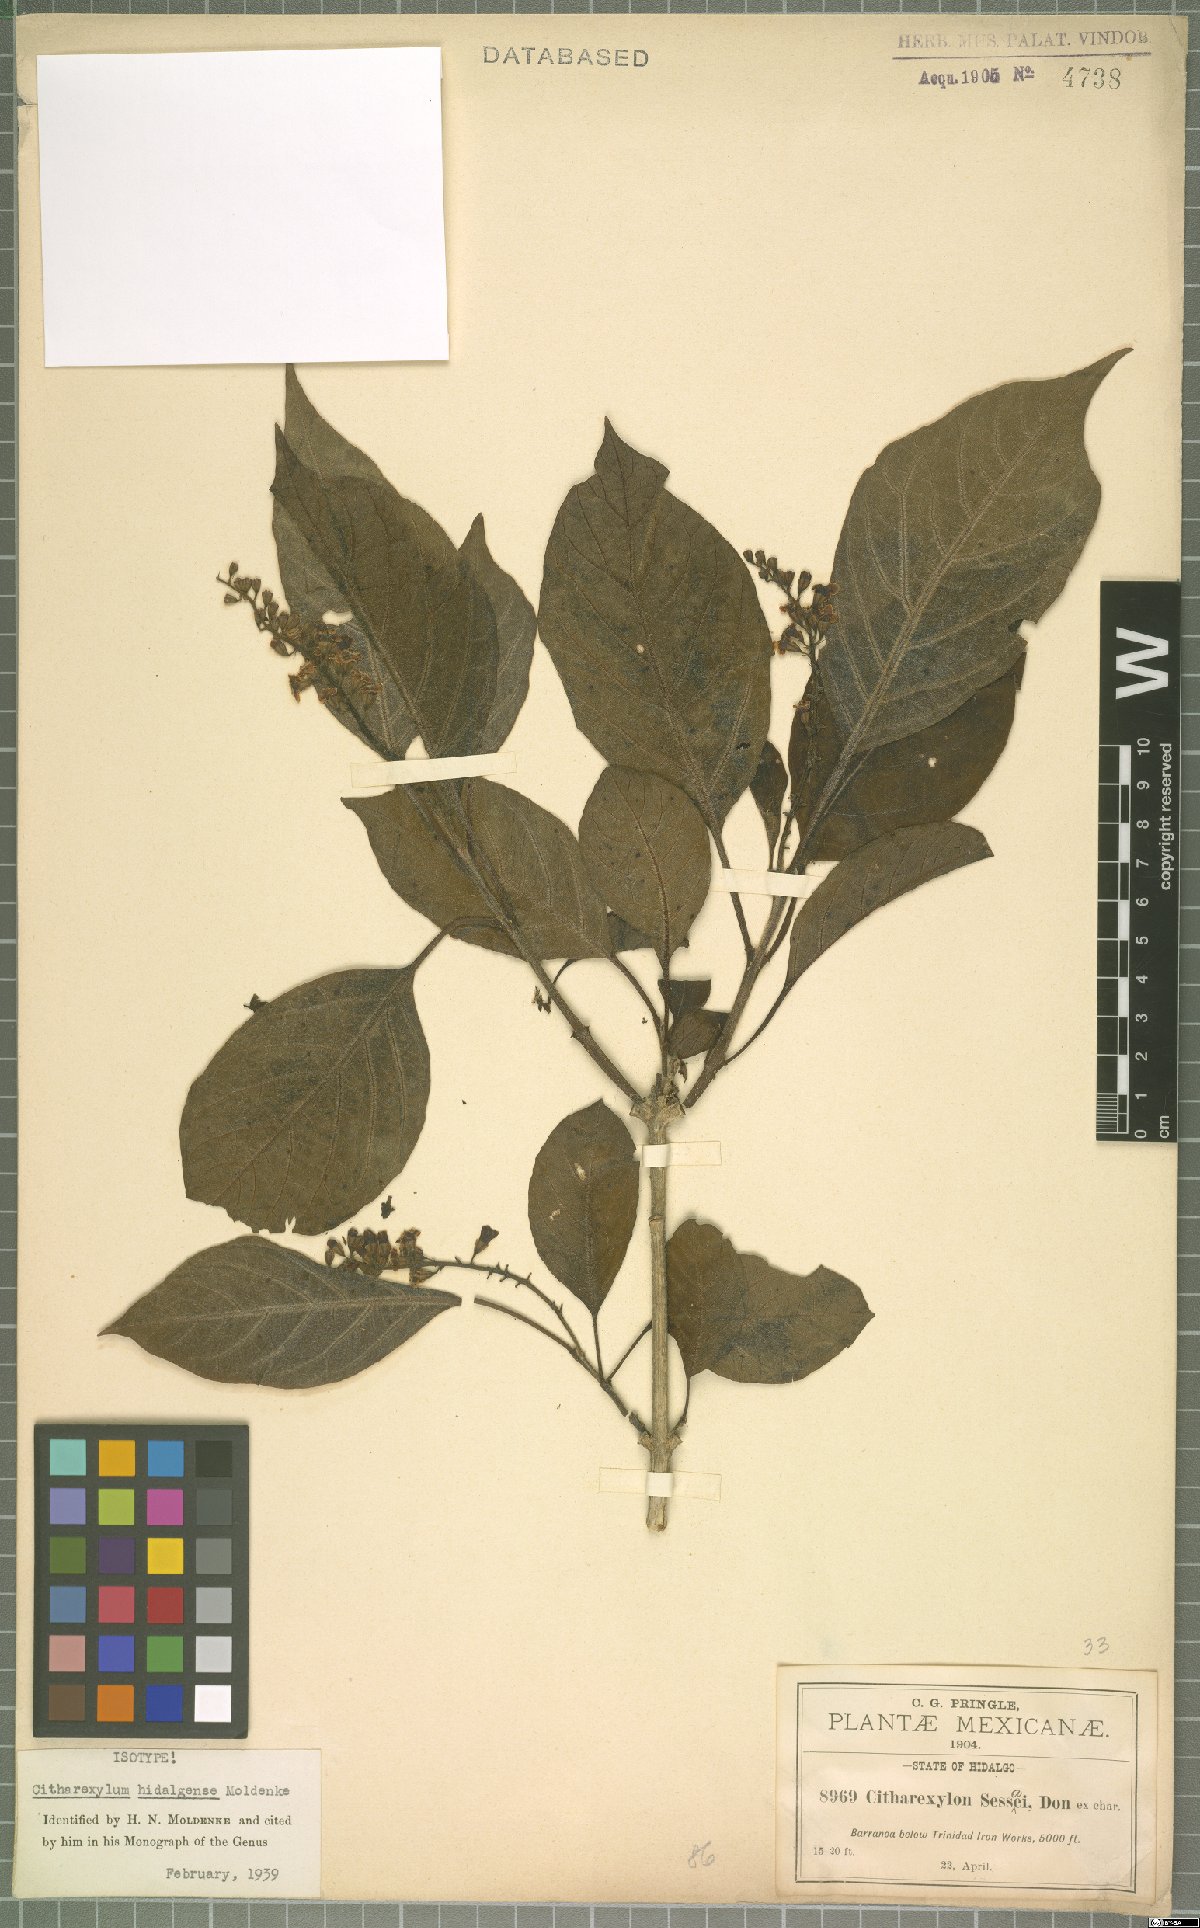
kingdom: Plantae
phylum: Tracheophyta
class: Magnoliopsida
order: Lamiales
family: Verbenaceae
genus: Citharexylum
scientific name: Citharexylum hidalgense
